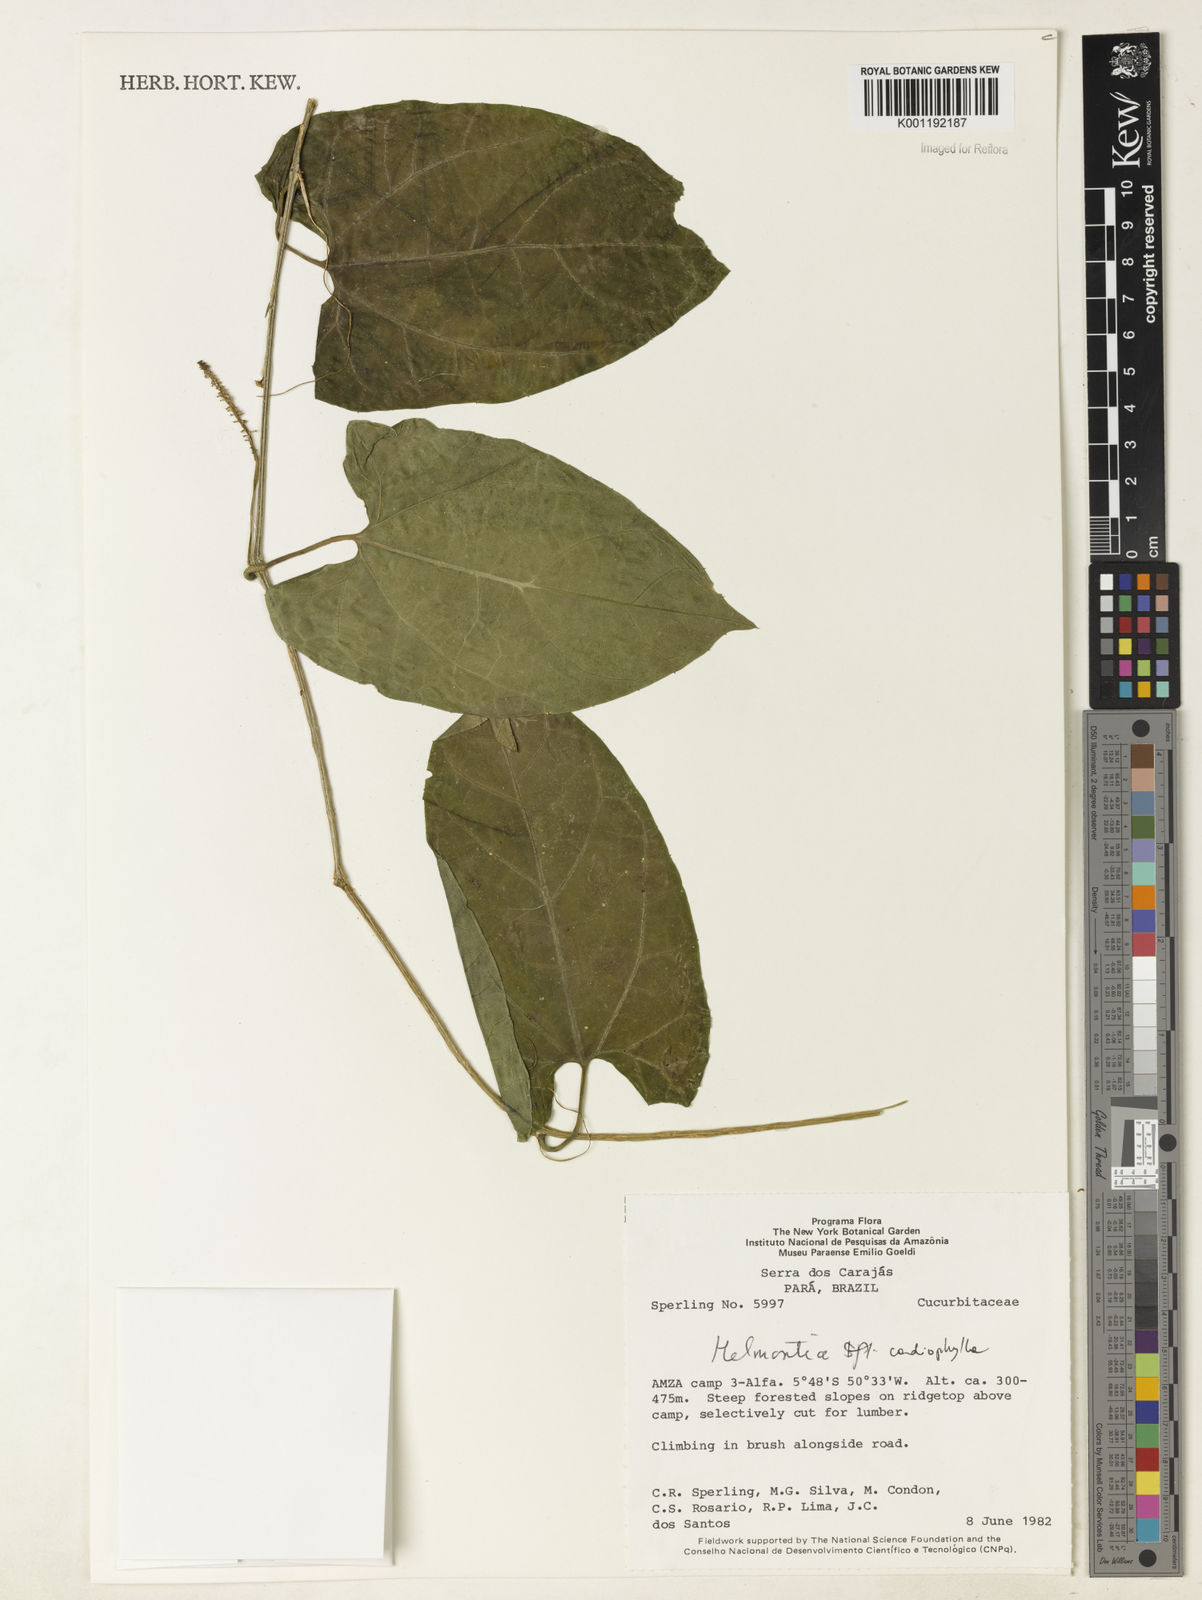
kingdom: Plantae
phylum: Tracheophyta
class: Magnoliopsida
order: Cucurbitales
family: Cucurbitaceae
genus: Helmontia
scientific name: Helmontia cardiophylla
